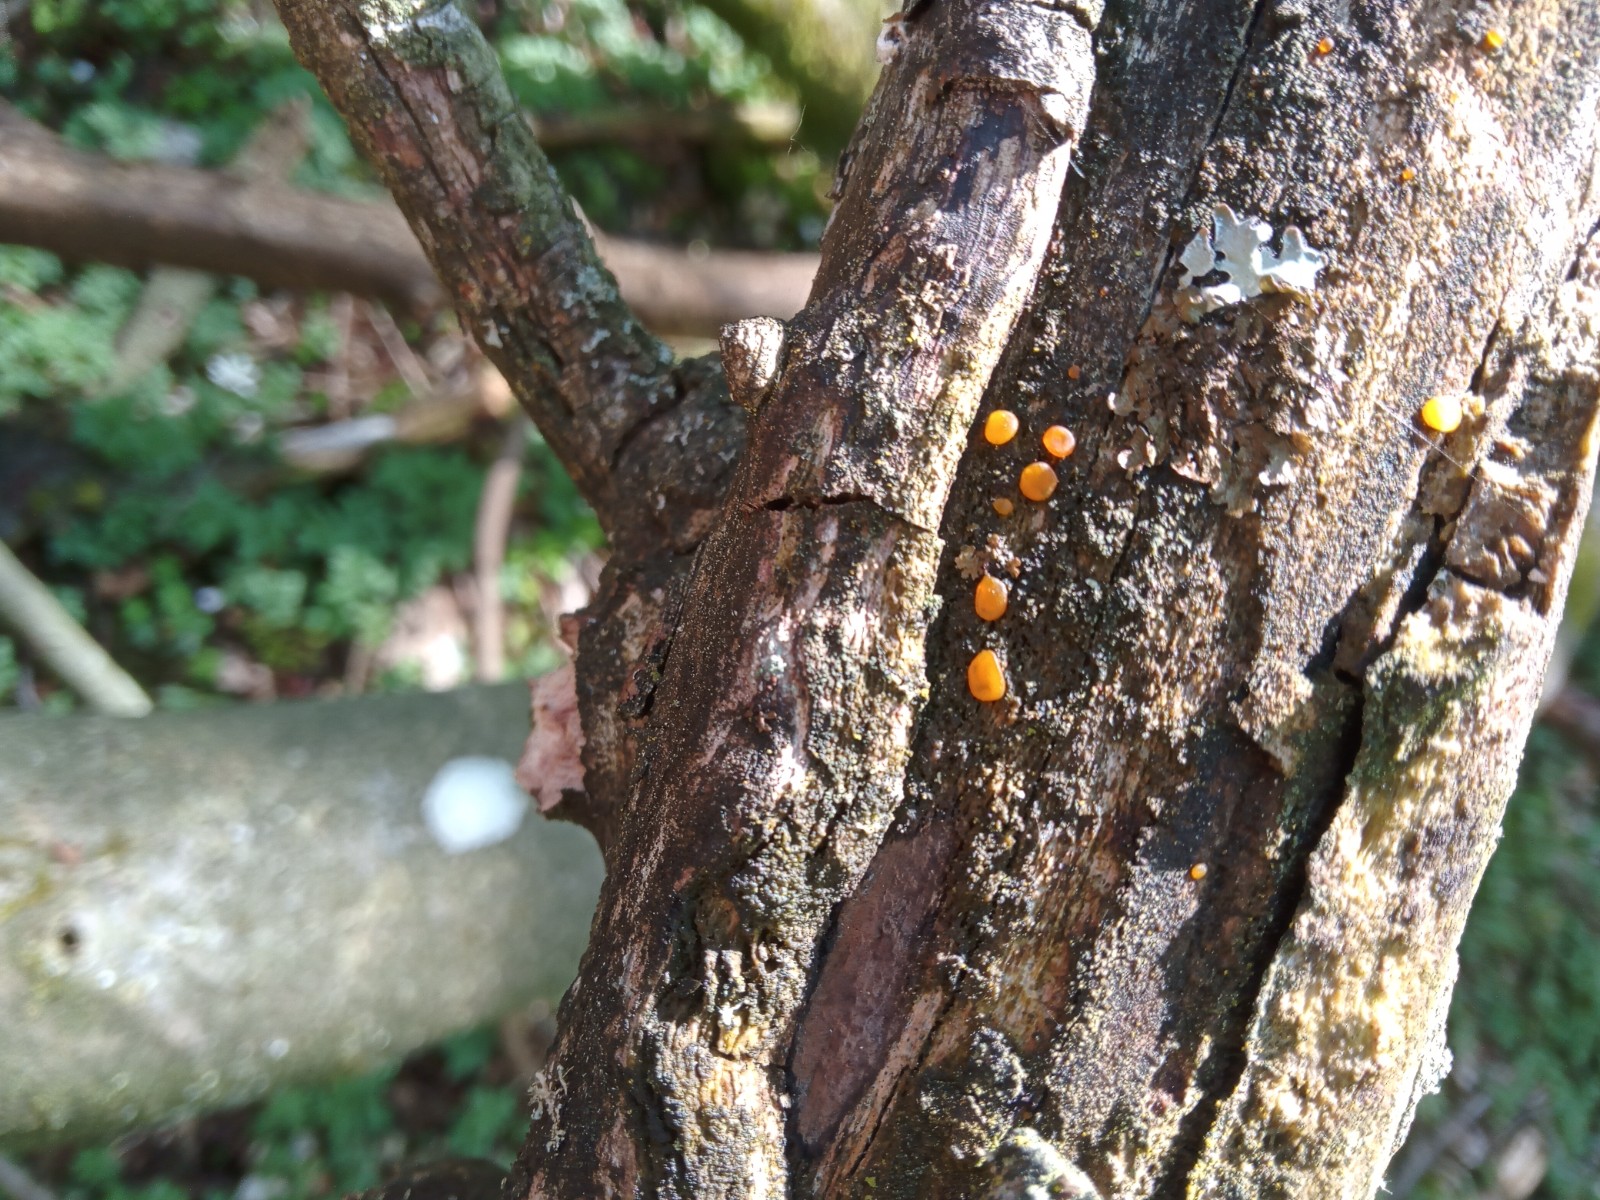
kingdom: Fungi
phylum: Basidiomycota
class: Dacrymycetes
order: Dacrymycetales
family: Dacrymycetaceae
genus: Dacrymyces
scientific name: Dacrymyces stillatus
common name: almindelig tåresvamp
